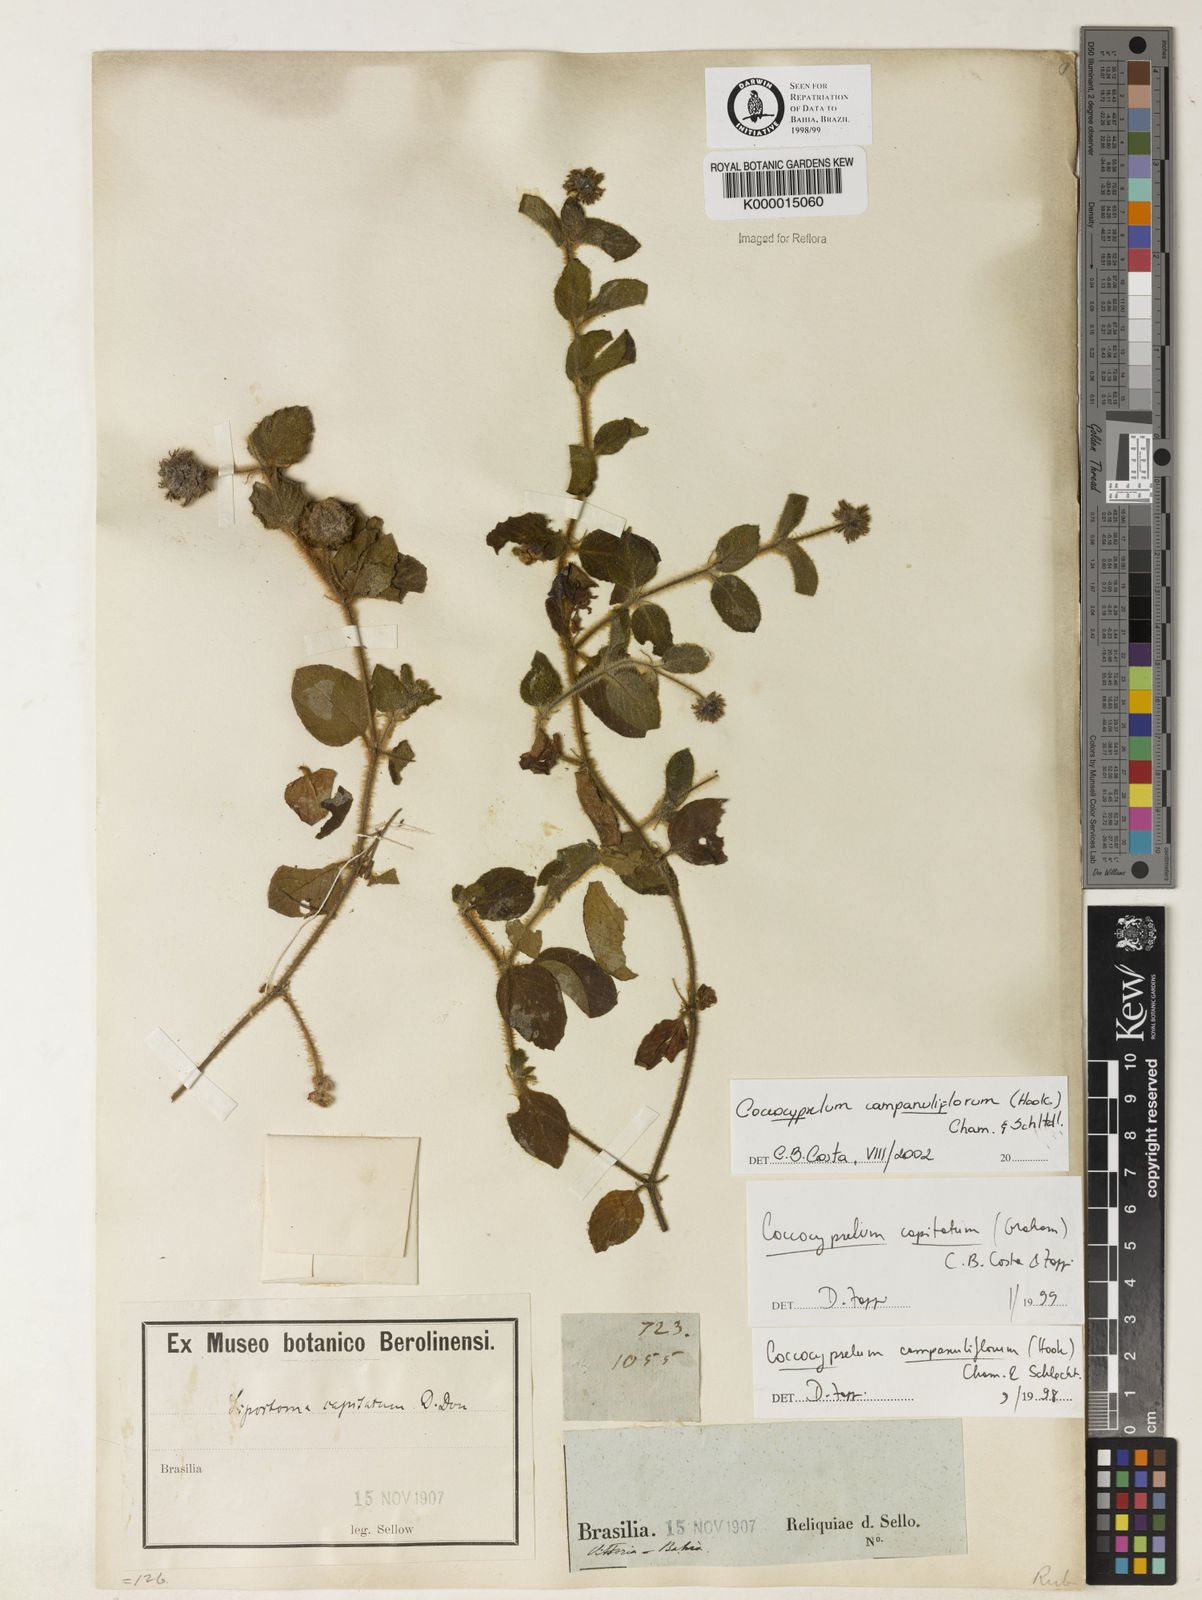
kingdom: Plantae
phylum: Tracheophyta
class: Magnoliopsida
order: Gentianales
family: Rubiaceae
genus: Coccocypselum
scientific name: Coccocypselum capitatum
